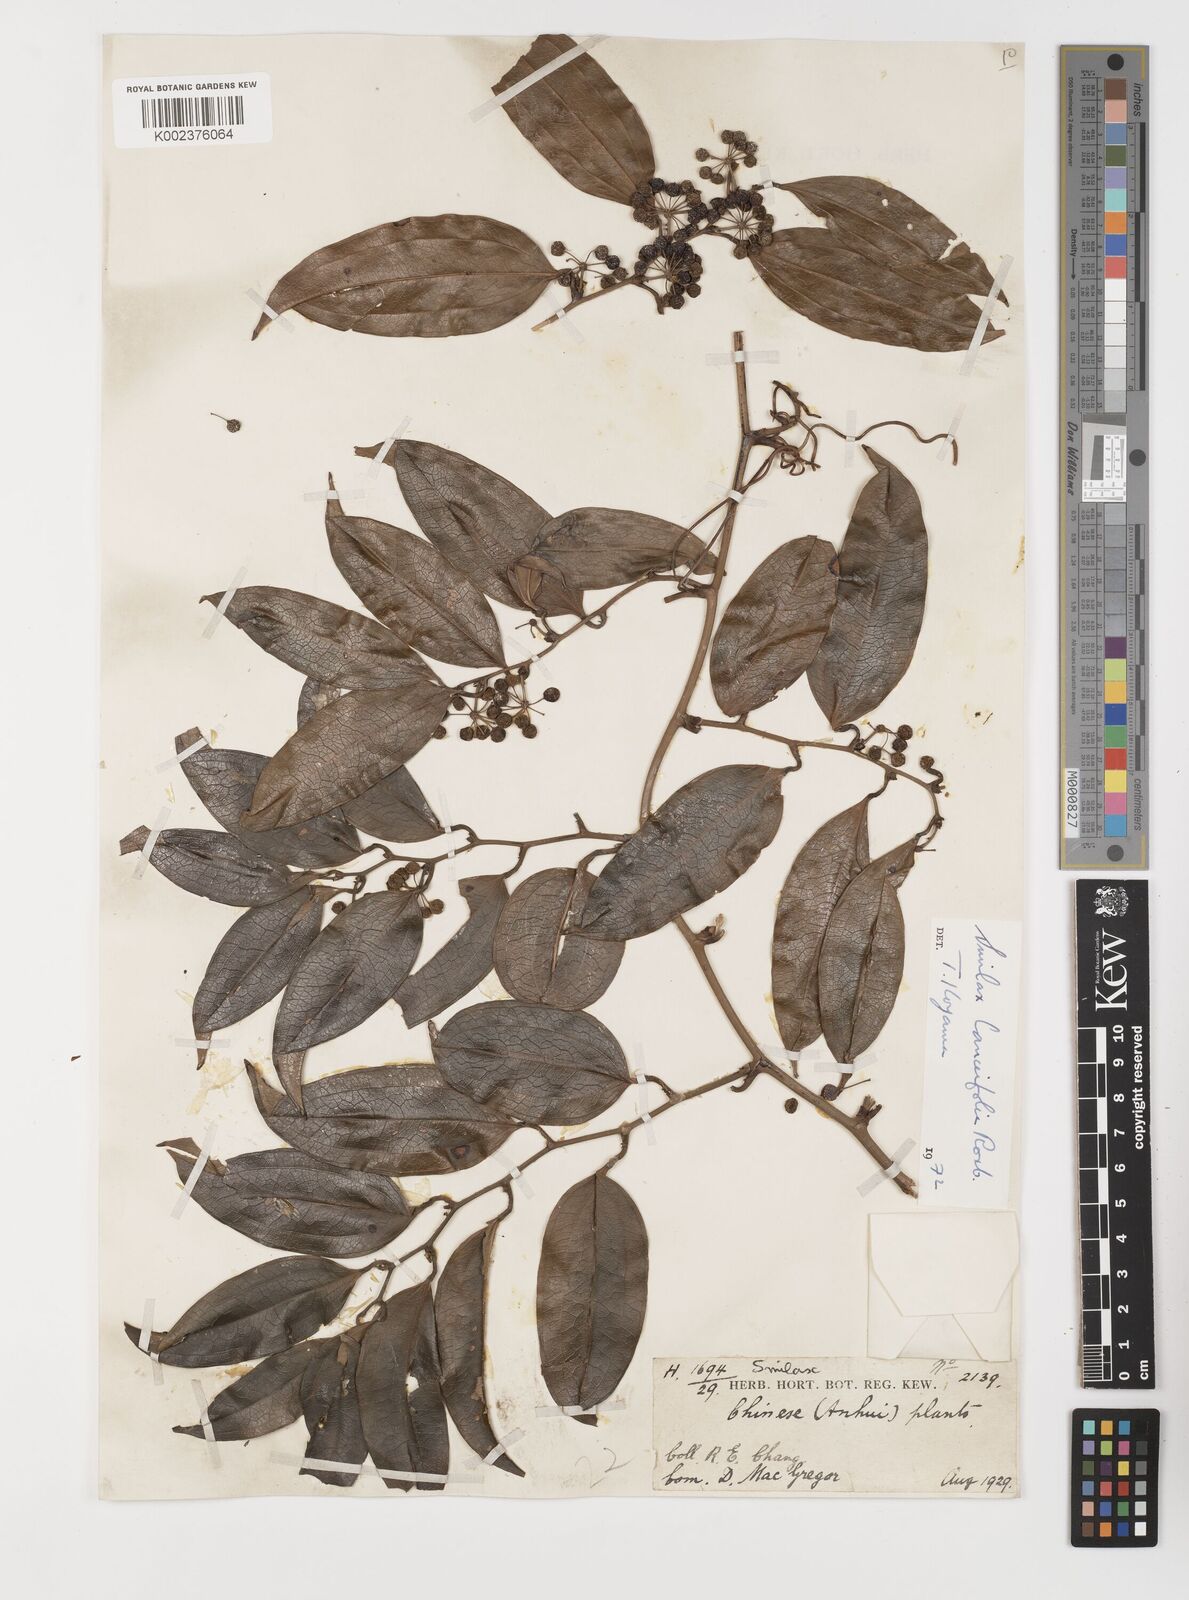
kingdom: Plantae
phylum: Tracheophyta
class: Liliopsida
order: Liliales
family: Smilacaceae
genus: Smilax
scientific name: Smilax lanceifolia
